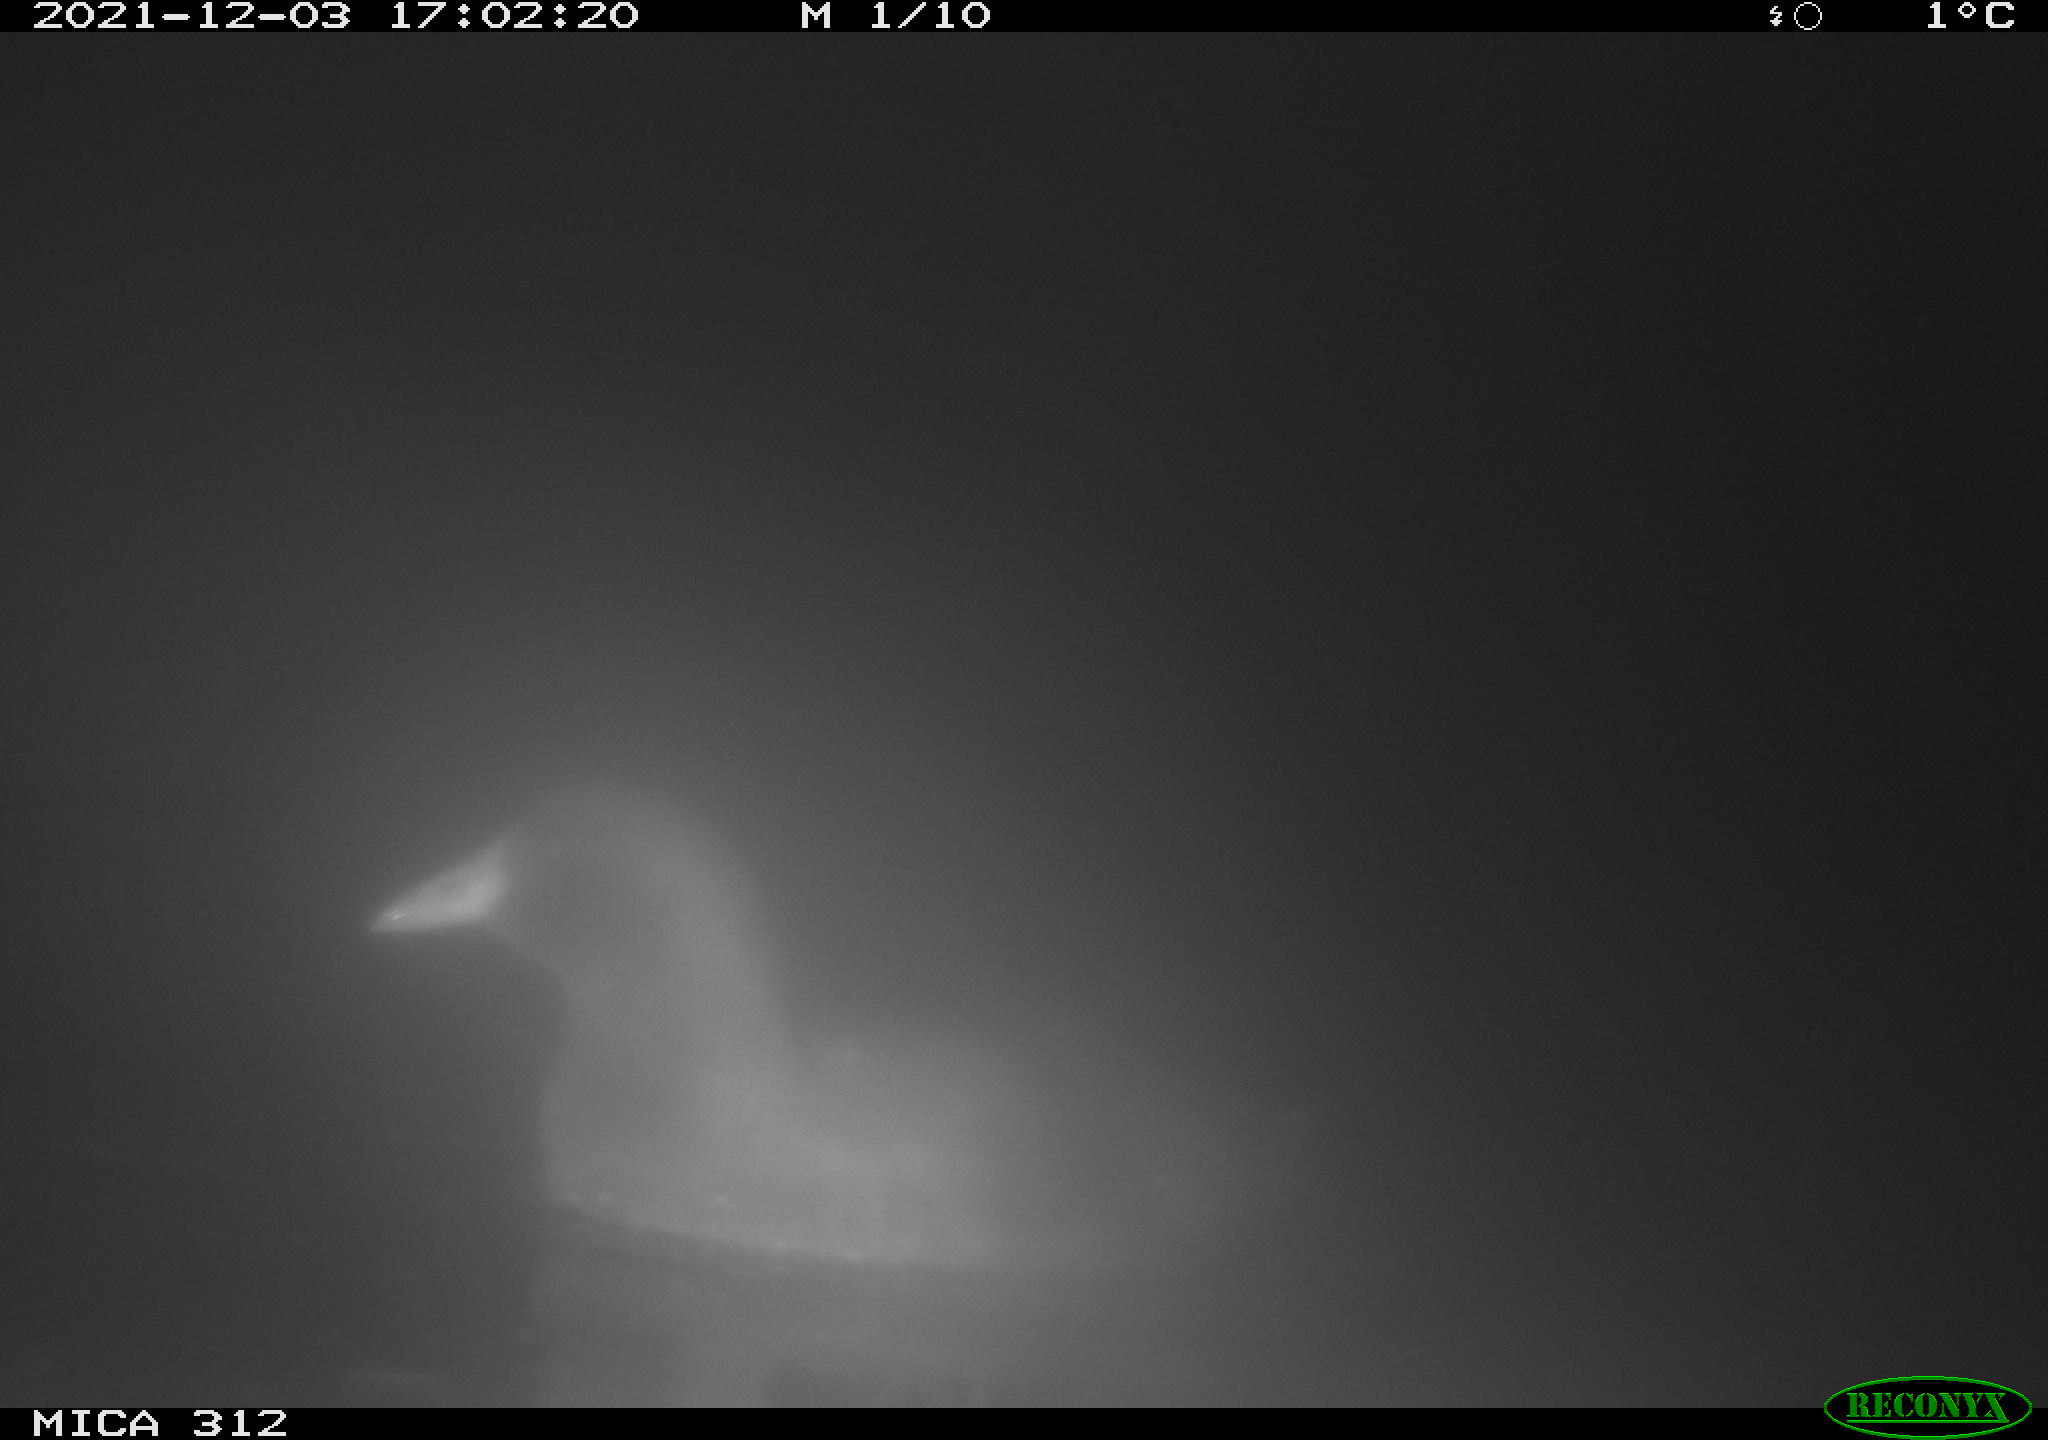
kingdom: Animalia
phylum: Chordata
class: Aves
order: Gruiformes
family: Rallidae
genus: Fulica
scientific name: Fulica atra
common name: Eurasian coot
